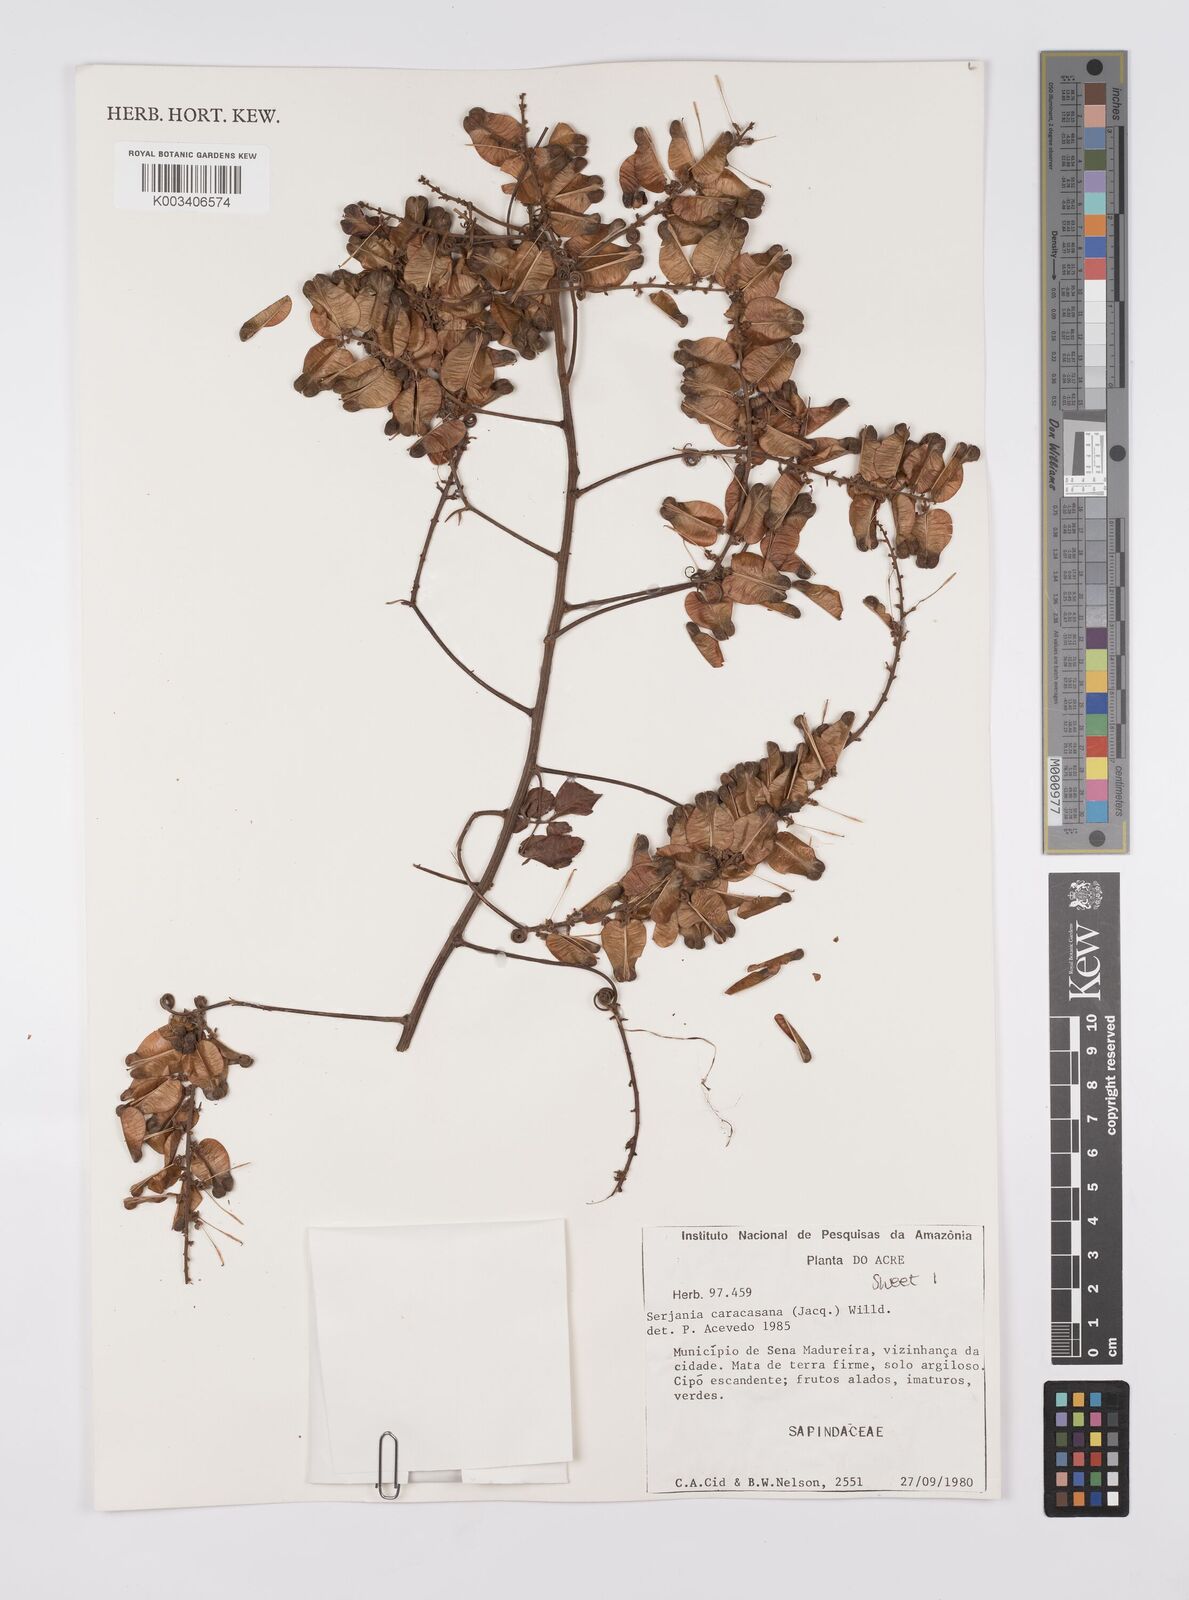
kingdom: Plantae
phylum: Tracheophyta
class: Magnoliopsida
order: Sapindales
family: Sapindaceae
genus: Serjania
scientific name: Serjania caracasana
